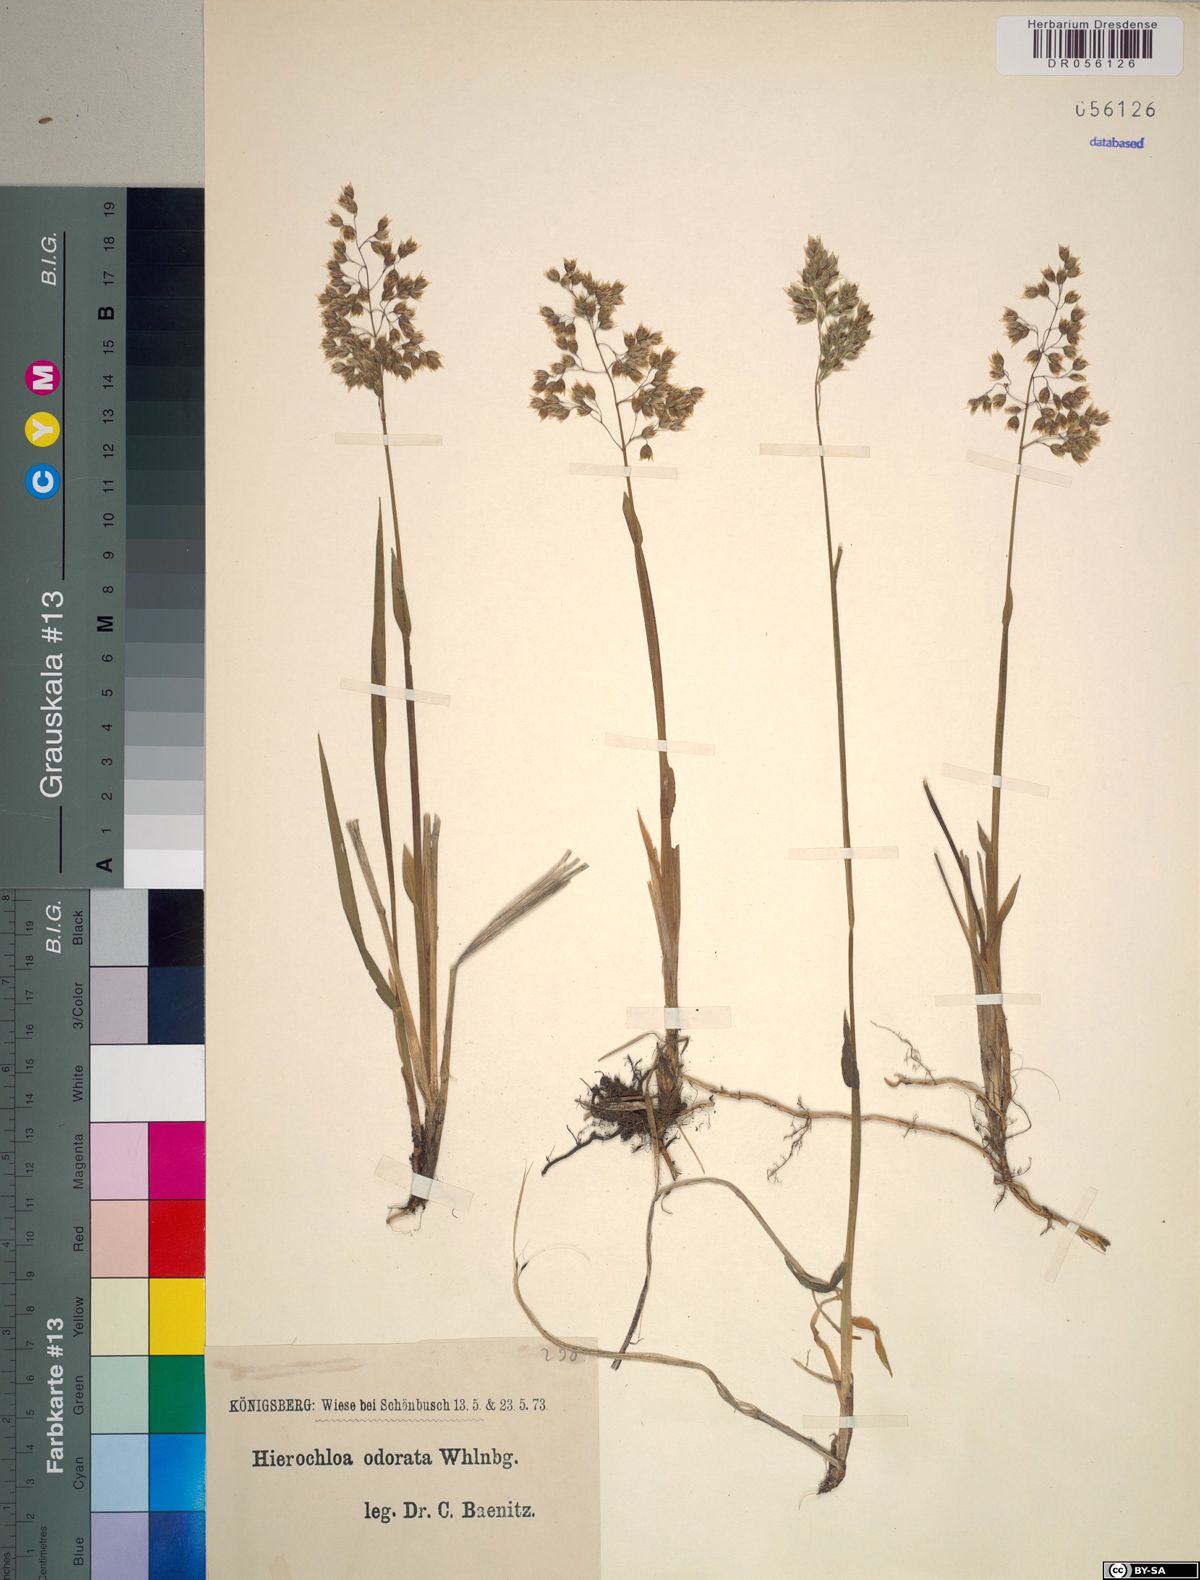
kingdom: Plantae
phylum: Tracheophyta
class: Liliopsida
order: Poales
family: Poaceae
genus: Anthoxanthum
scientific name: Anthoxanthum nitens
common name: Holy grass
